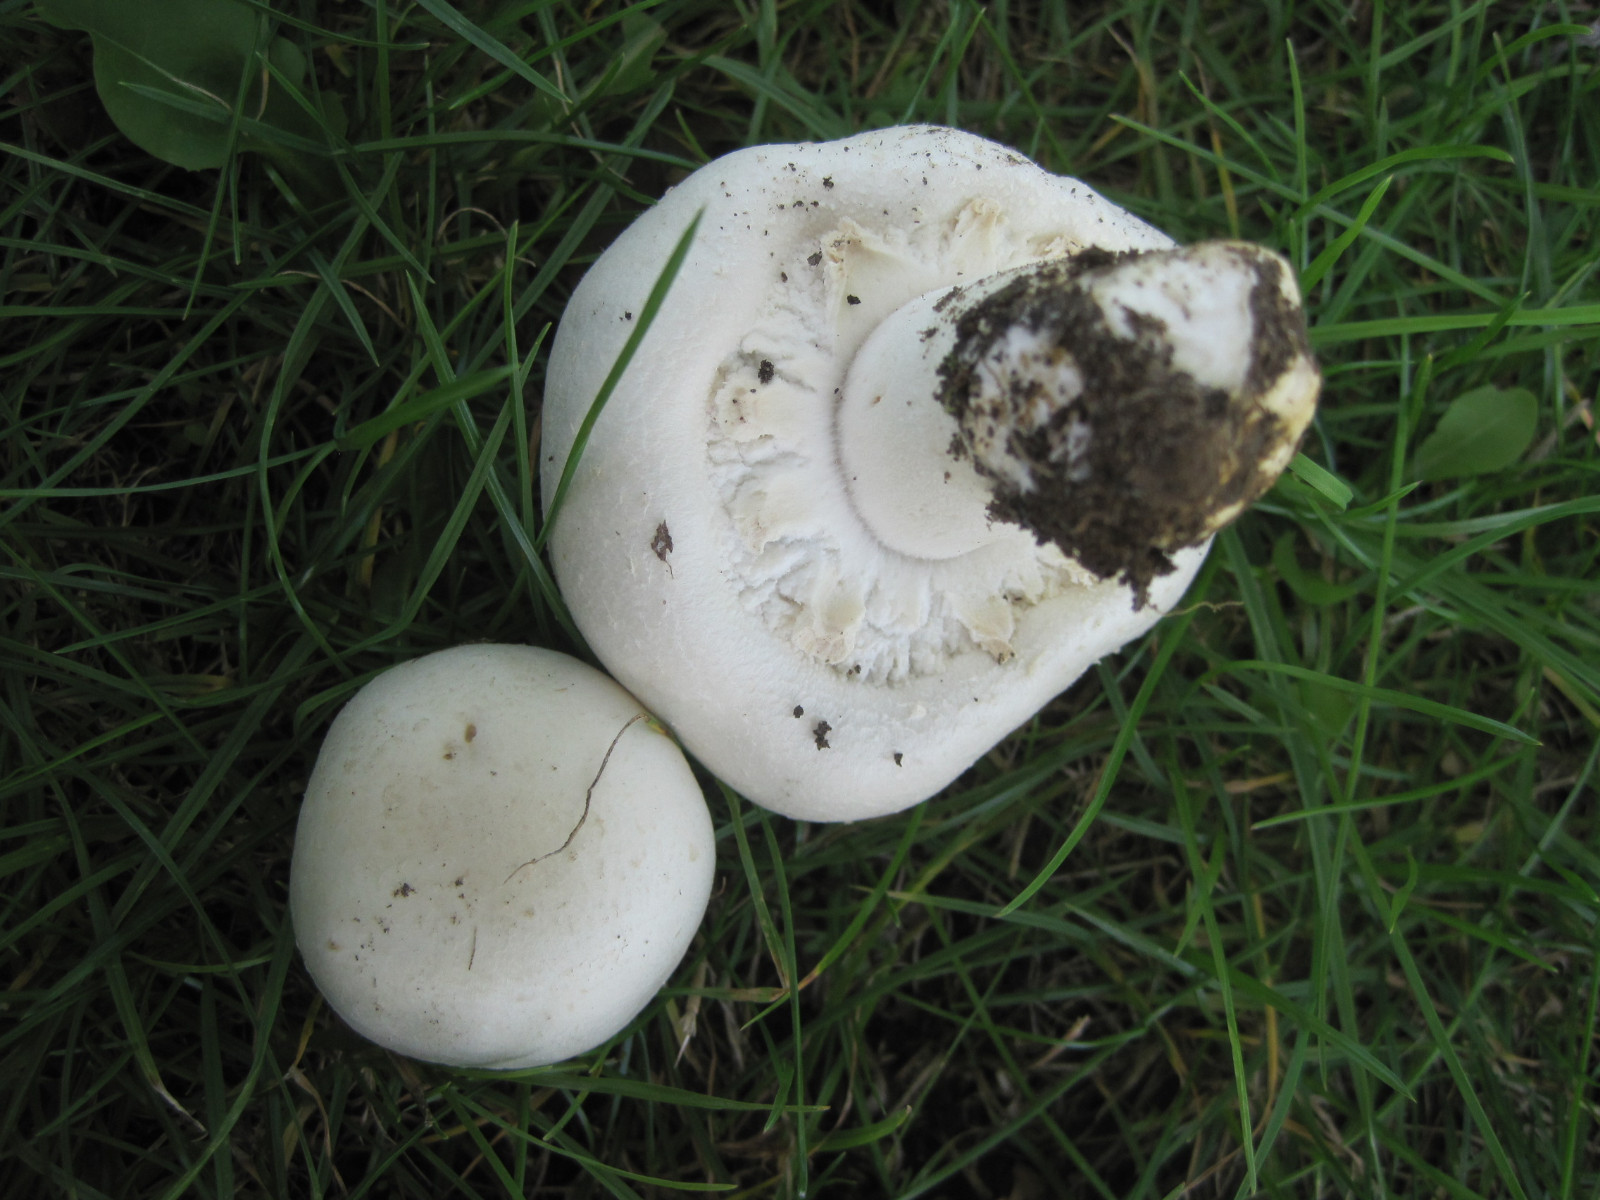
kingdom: Fungi
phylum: Basidiomycota
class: Agaricomycetes
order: Agaricales
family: Agaricaceae
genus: Agaricus
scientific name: Agaricus arvensis
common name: ager-champignon
